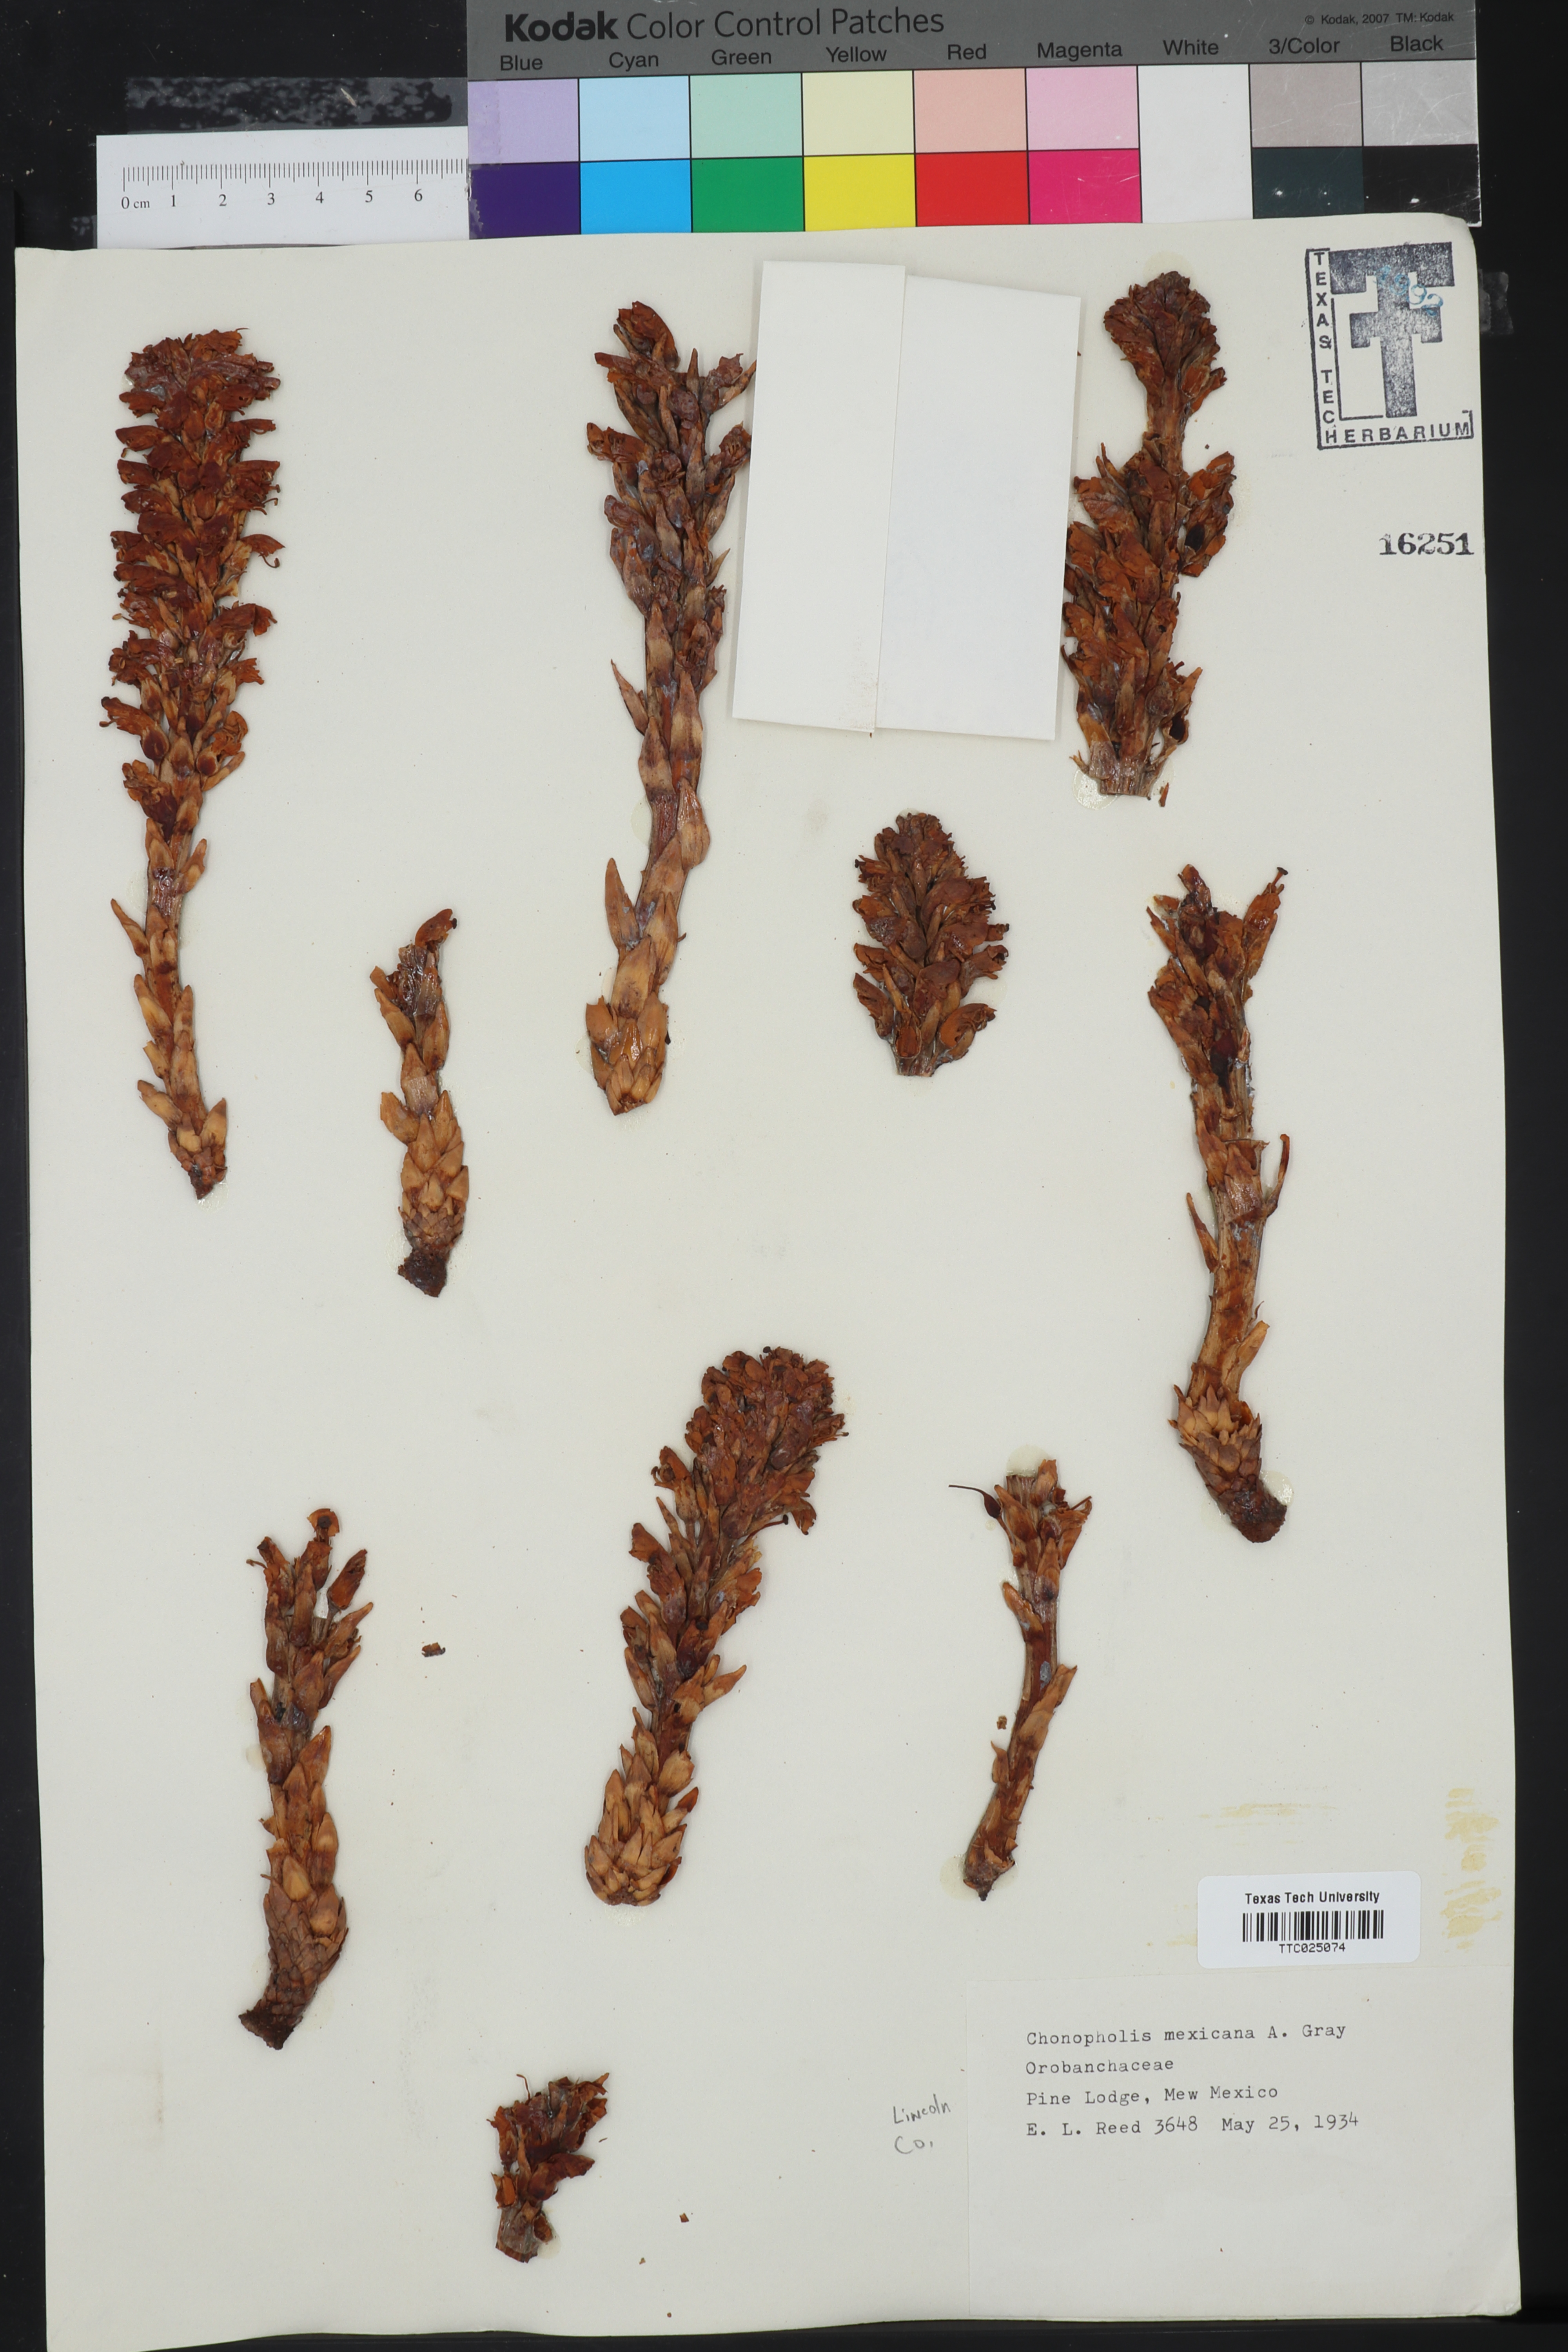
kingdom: Plantae
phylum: Tracheophyta
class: Magnoliopsida
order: Lamiales
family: Orobanchaceae
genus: Conopholis
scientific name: Conopholis alpina
